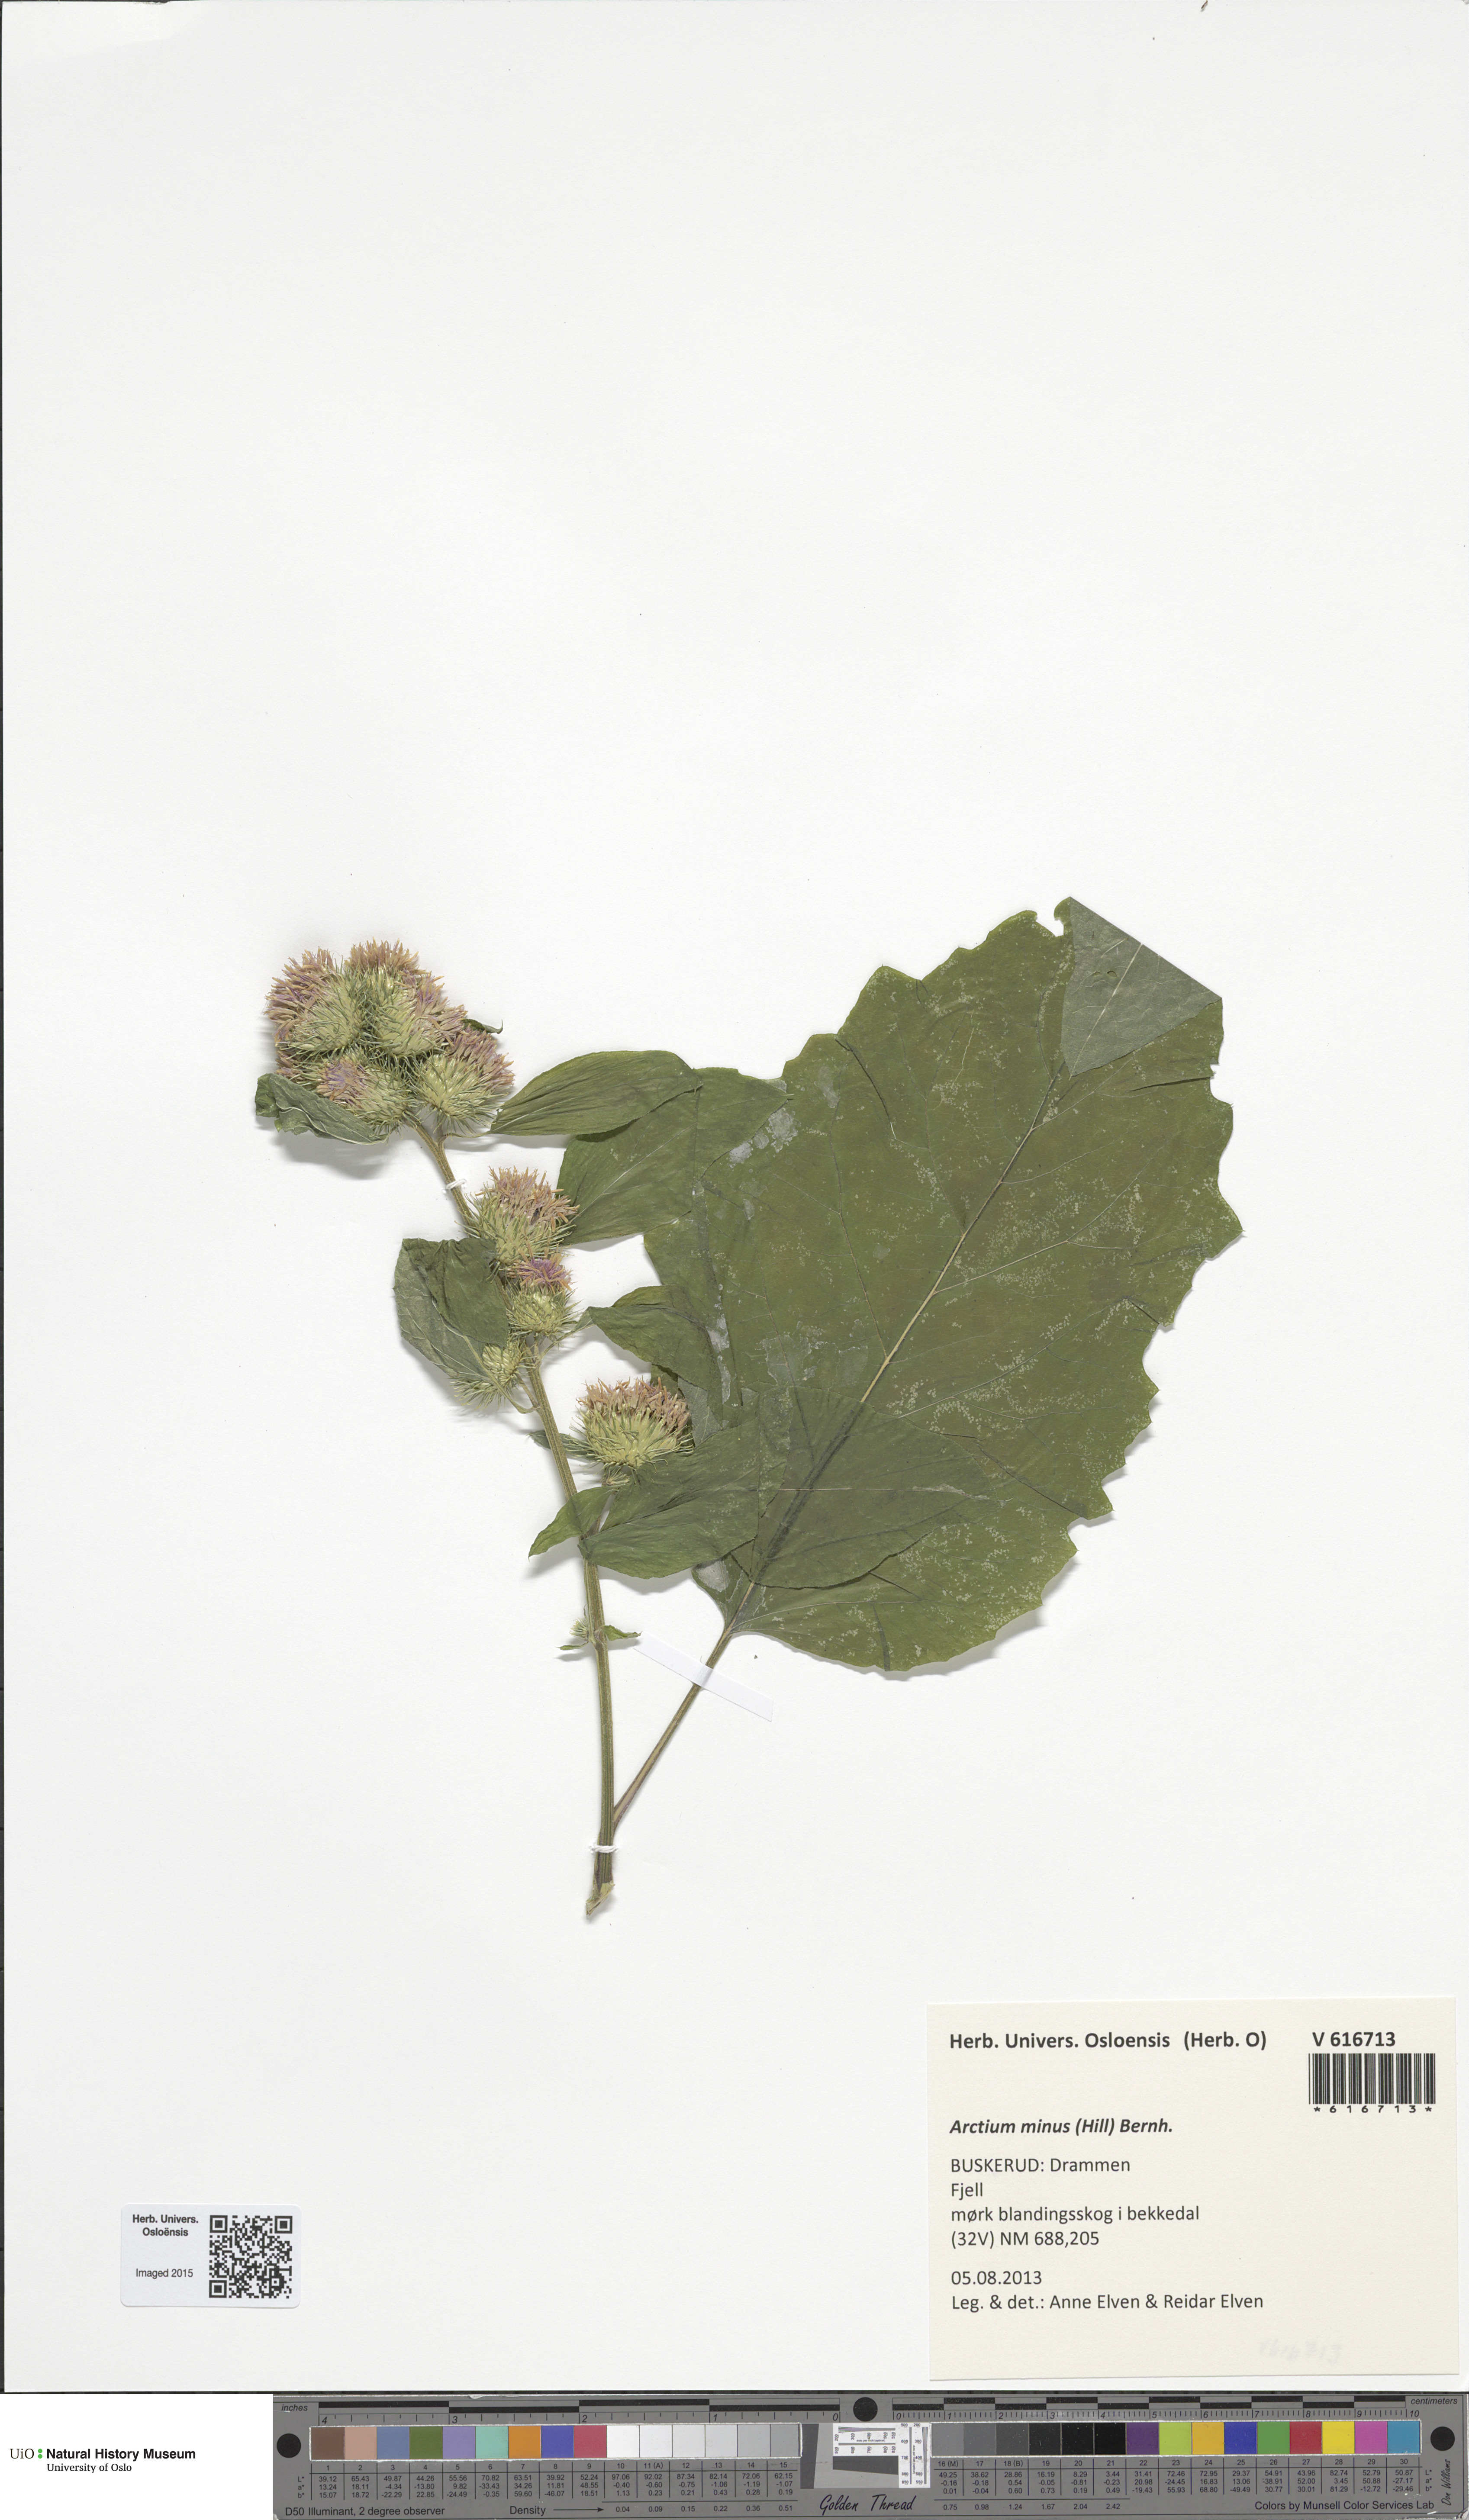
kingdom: Plantae
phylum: Tracheophyta
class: Magnoliopsida
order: Asterales
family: Asteraceae
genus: Arctium
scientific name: Arctium minus
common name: Lesser burdock
